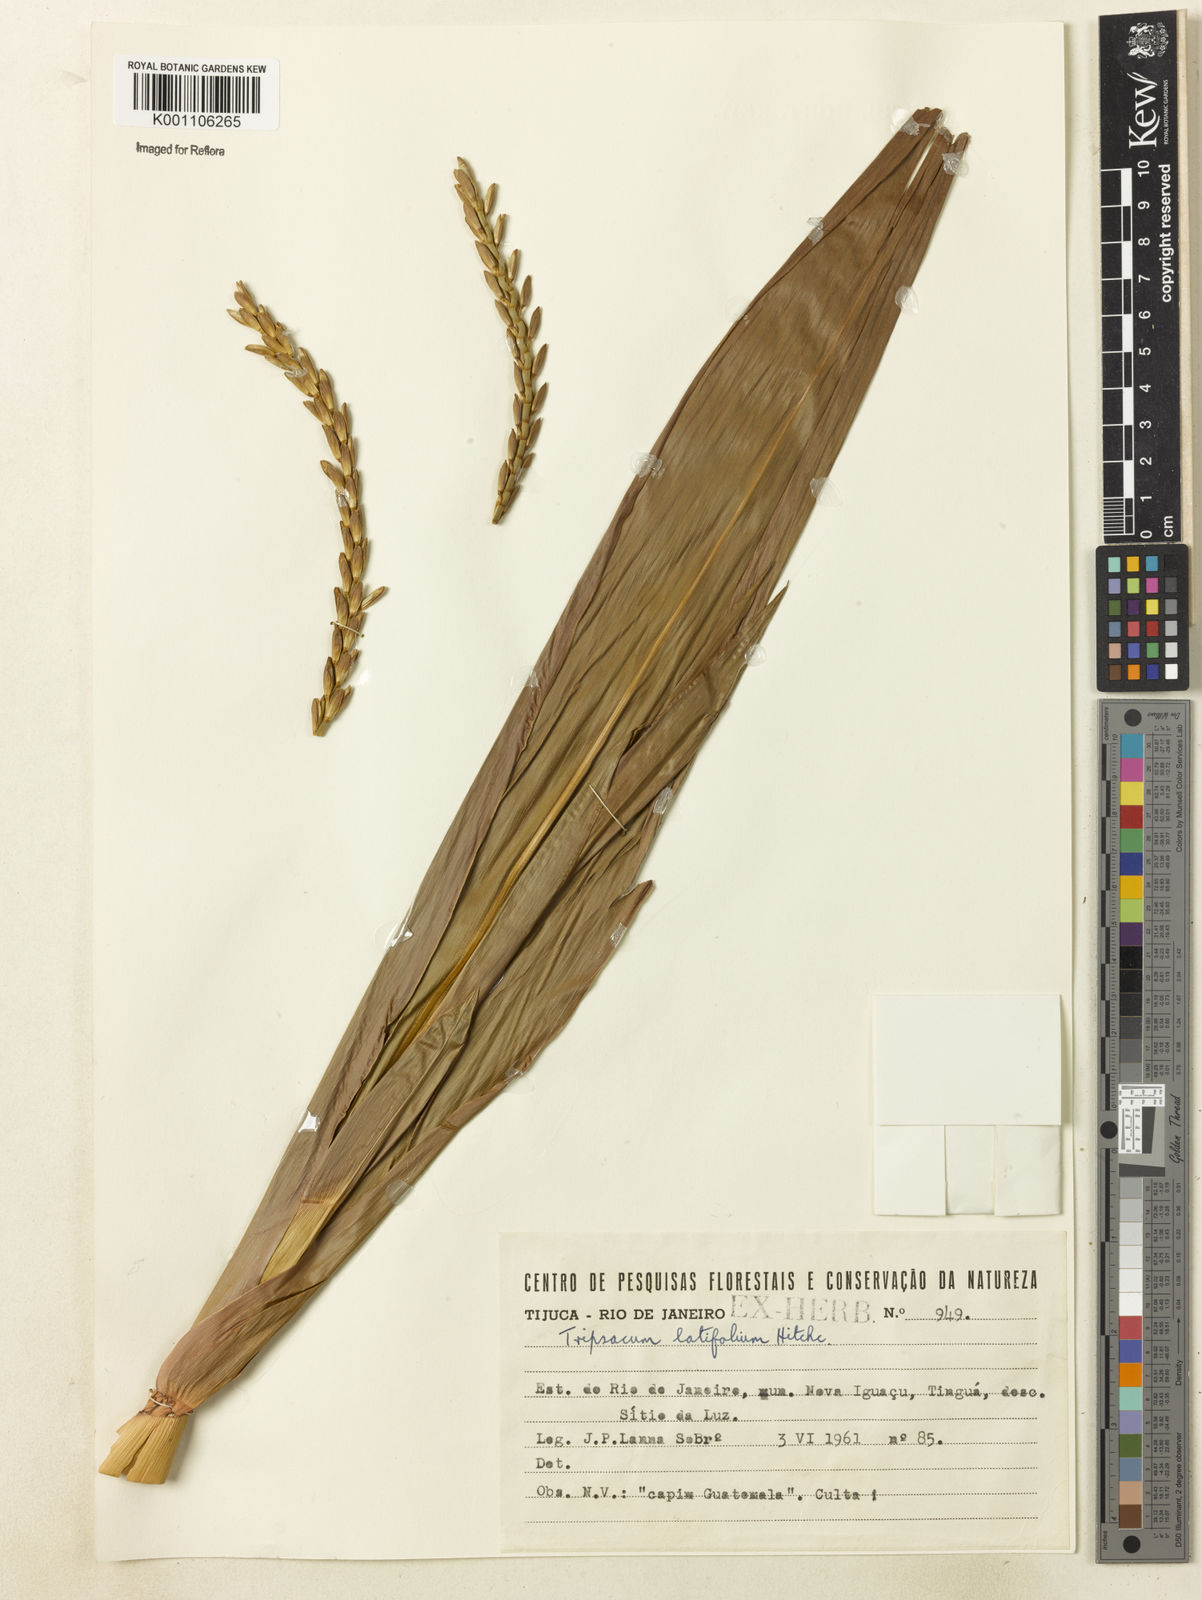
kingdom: Plantae
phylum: Tracheophyta
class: Liliopsida
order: Poales
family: Poaceae
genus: Tripsacum
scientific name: Tripsacum andersonii
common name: Guatemalan grass
